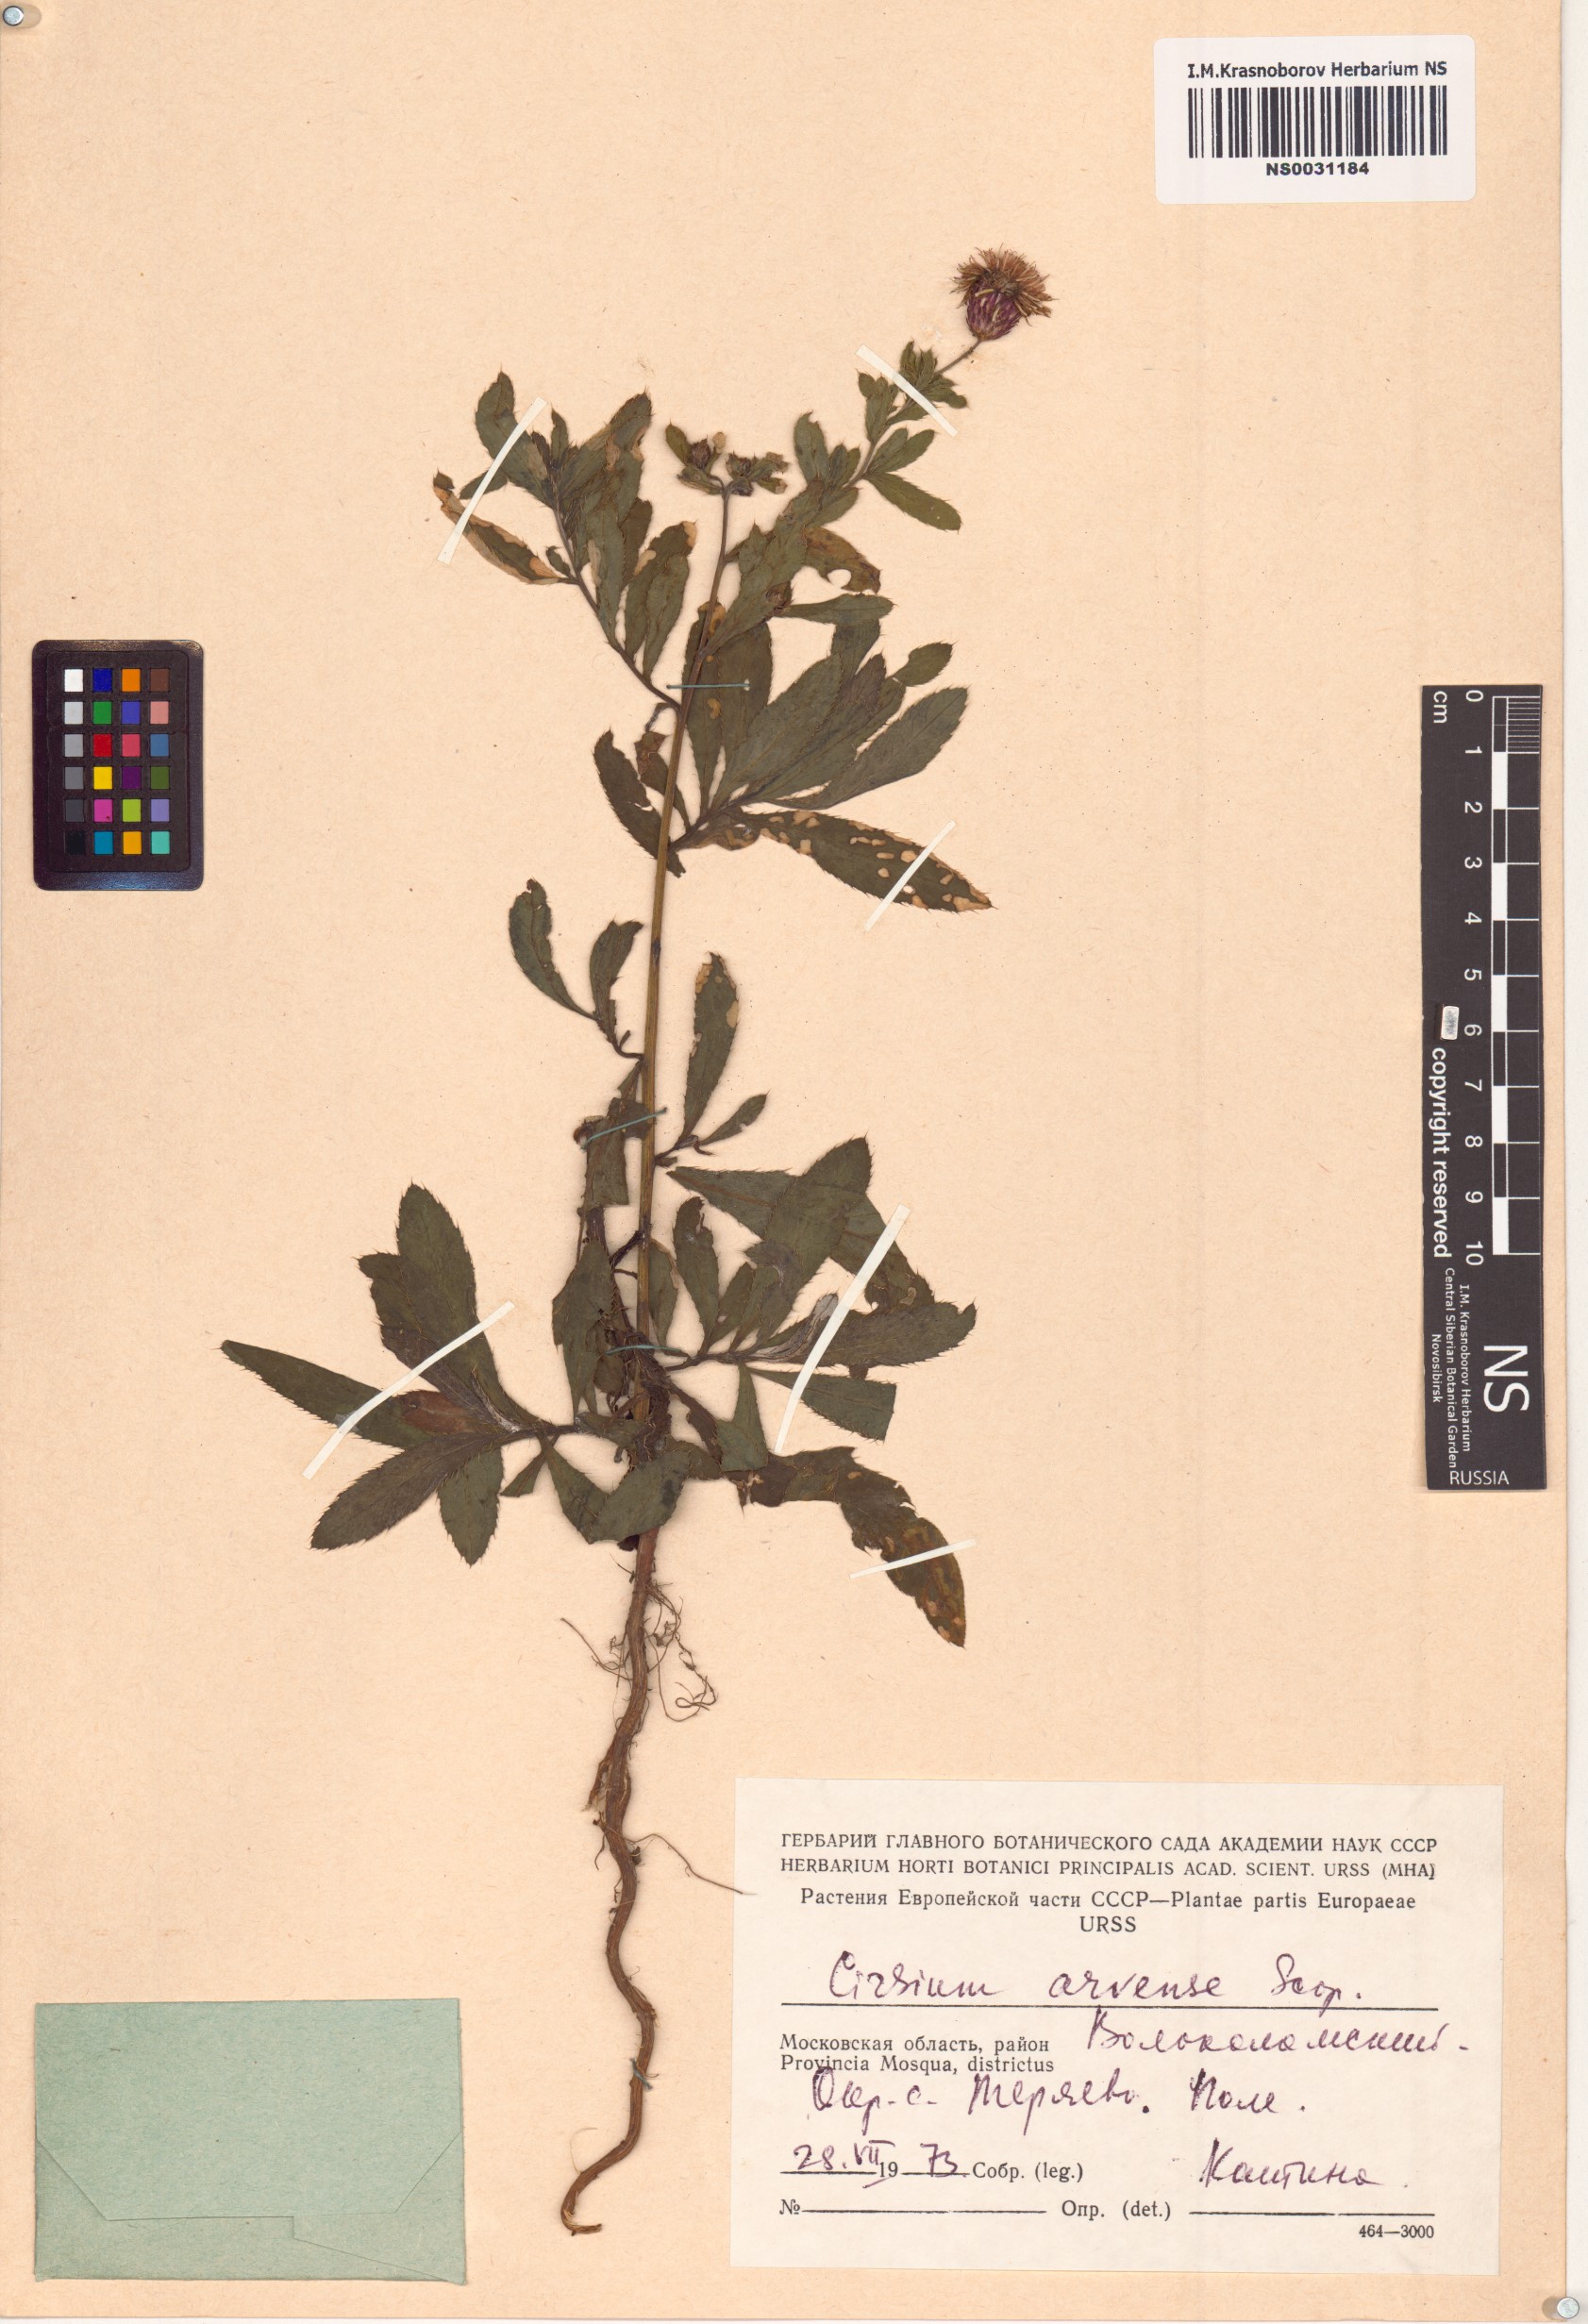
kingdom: Plantae
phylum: Tracheophyta
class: Magnoliopsida
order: Asterales
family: Asteraceae
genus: Cirsium
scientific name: Cirsium arvense
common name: Creeping thistle
